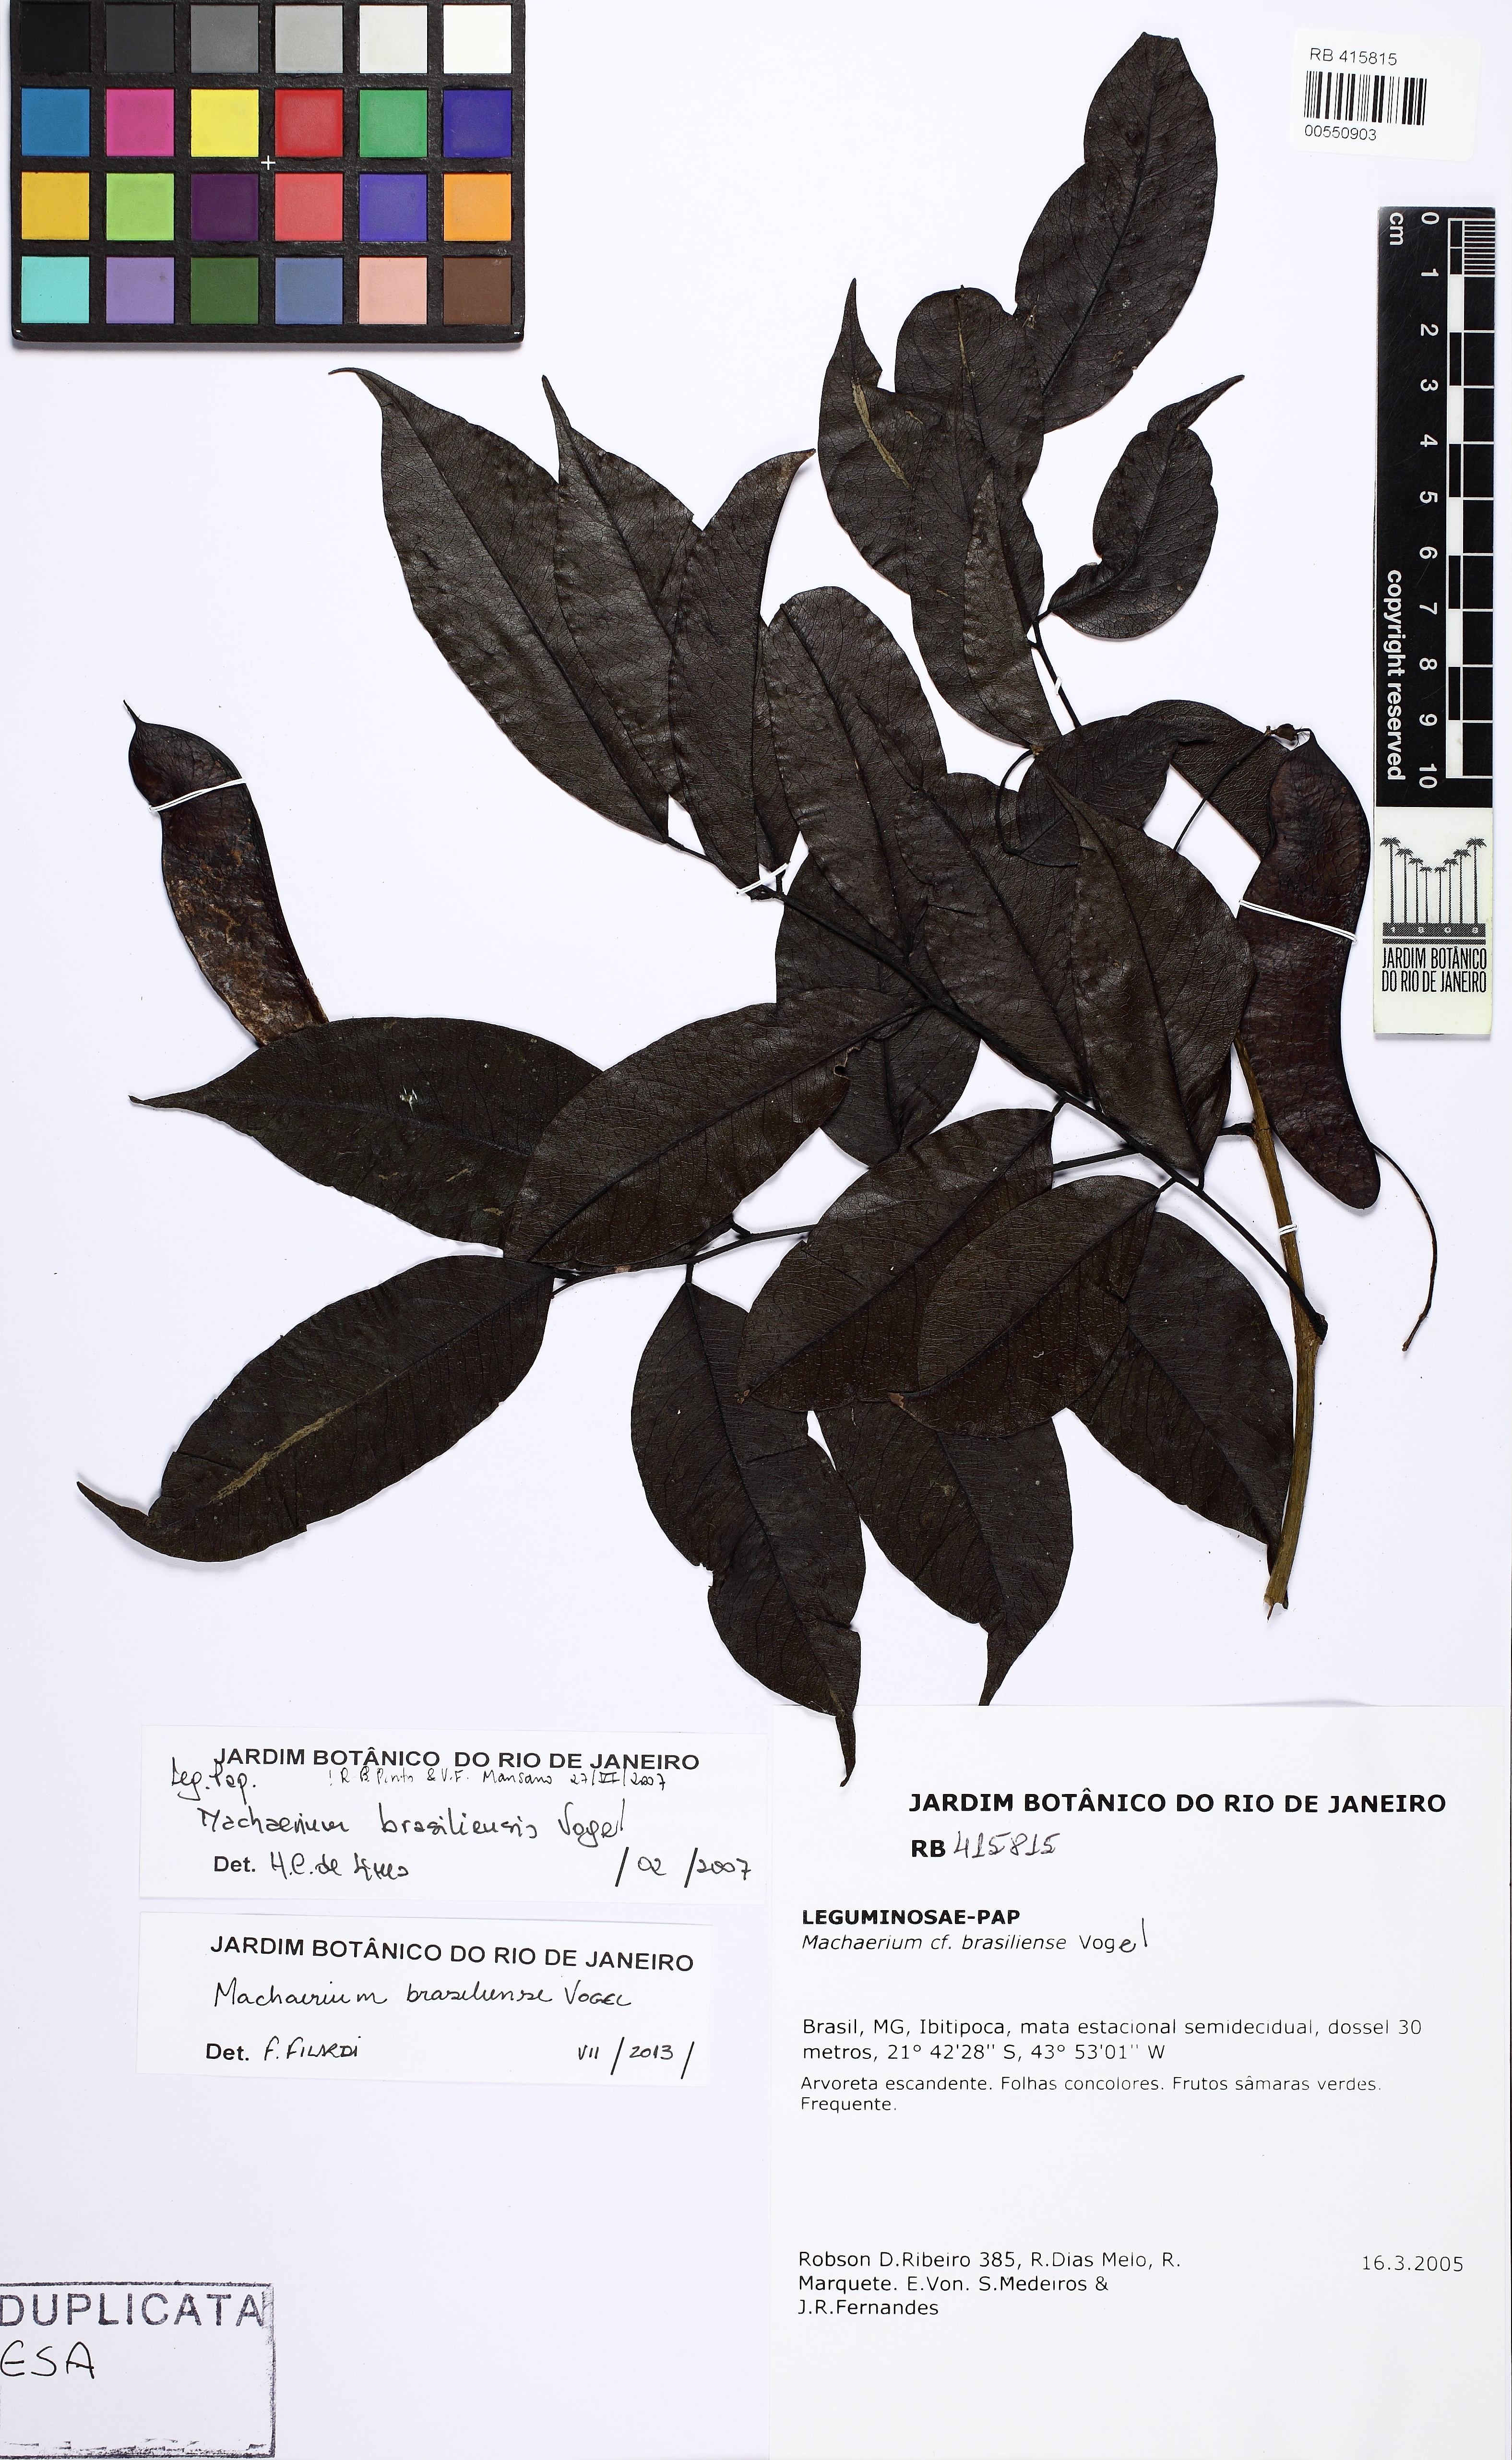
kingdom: Plantae
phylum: Tracheophyta
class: Magnoliopsida
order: Fabales
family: Fabaceae
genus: Machaerium
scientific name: Machaerium brasiliense
